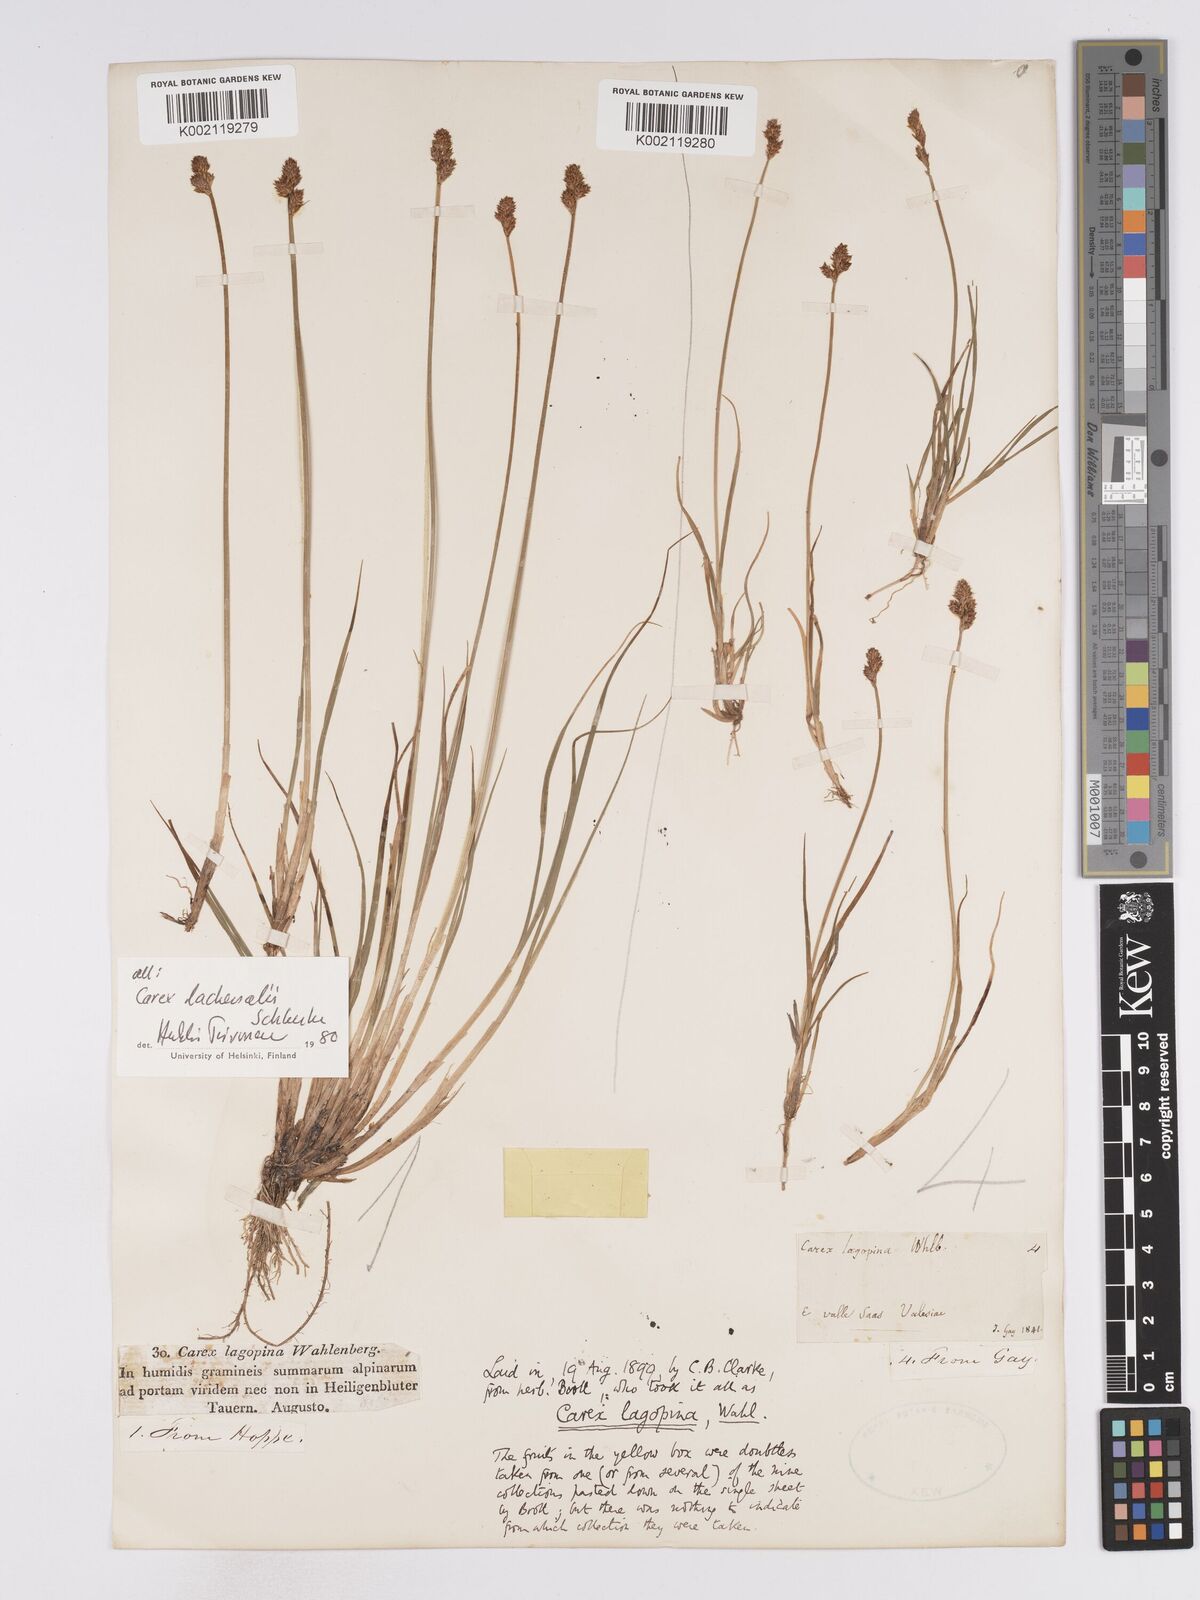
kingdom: Plantae
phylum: Tracheophyta
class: Liliopsida
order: Poales
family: Cyperaceae
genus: Carex
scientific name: Carex lachenalii
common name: Hare's-foot sedge
